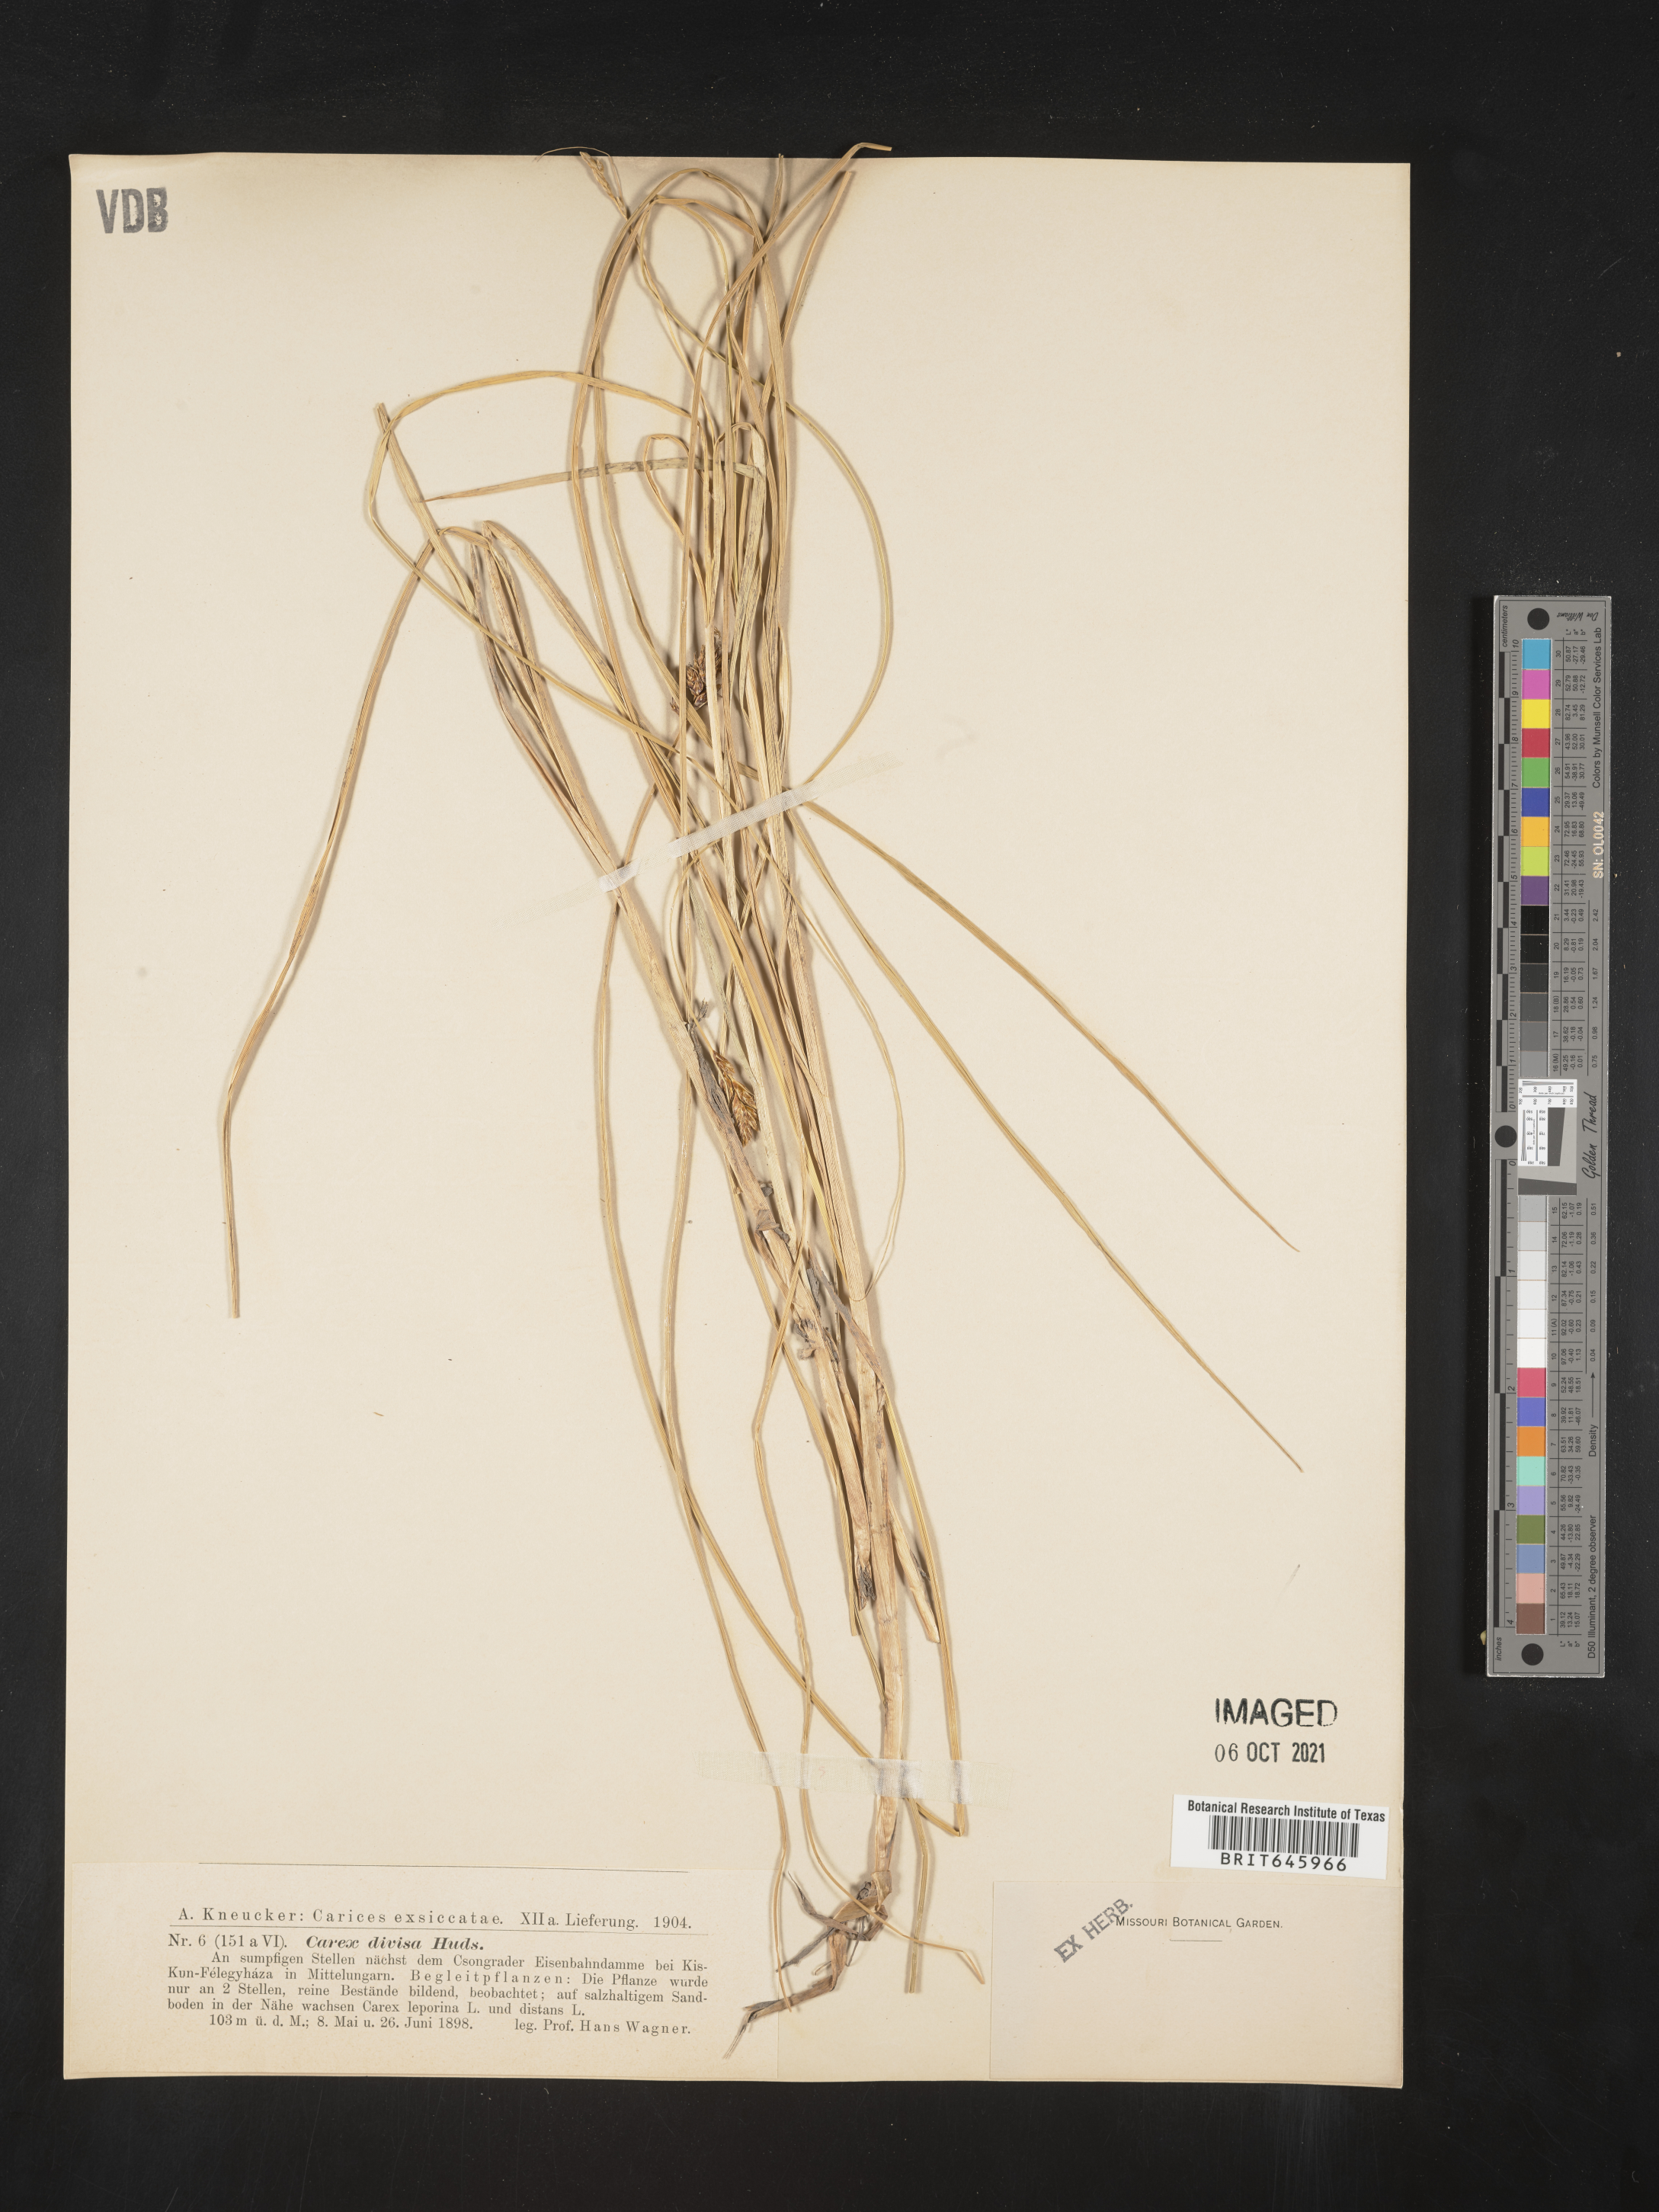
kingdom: Plantae
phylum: Tracheophyta
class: Liliopsida
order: Poales
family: Cyperaceae
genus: Carex
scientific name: Carex divisa
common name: Divided sedge
